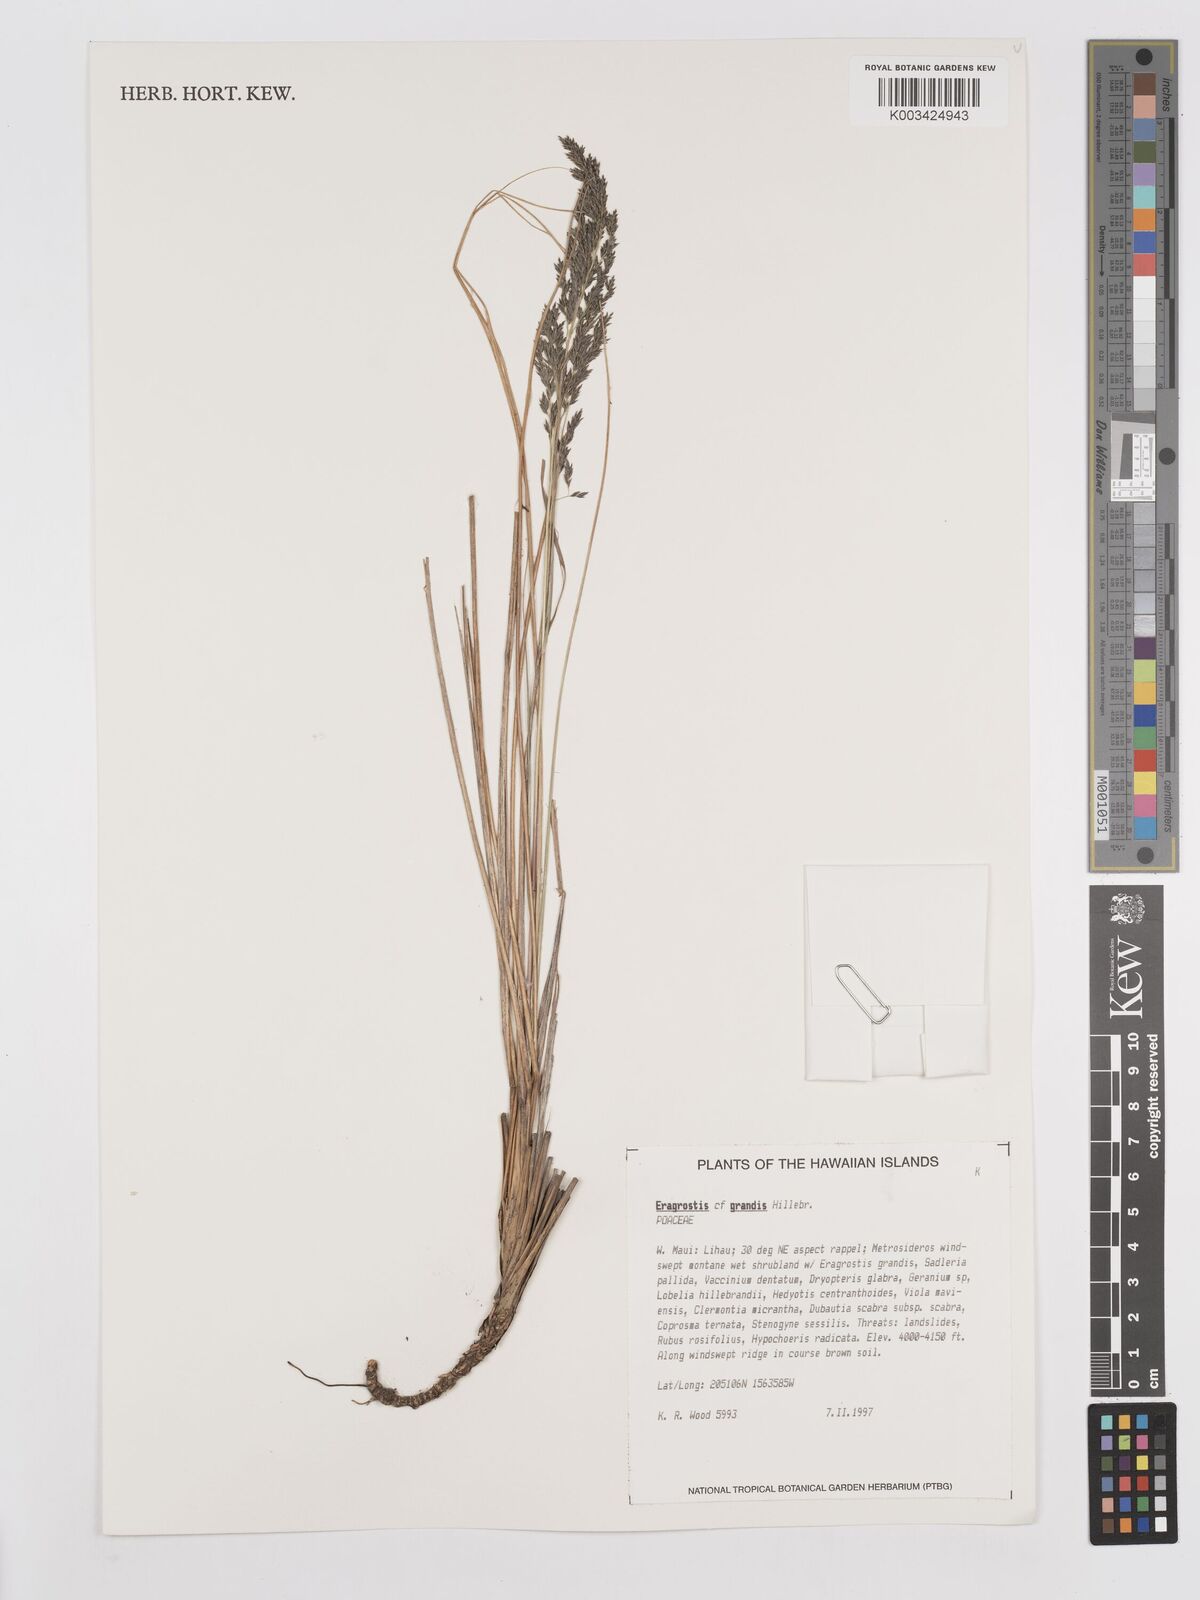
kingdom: Plantae
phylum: Tracheophyta
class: Liliopsida
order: Poales
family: Poaceae
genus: Eragrostis
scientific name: Eragrostis grandis
